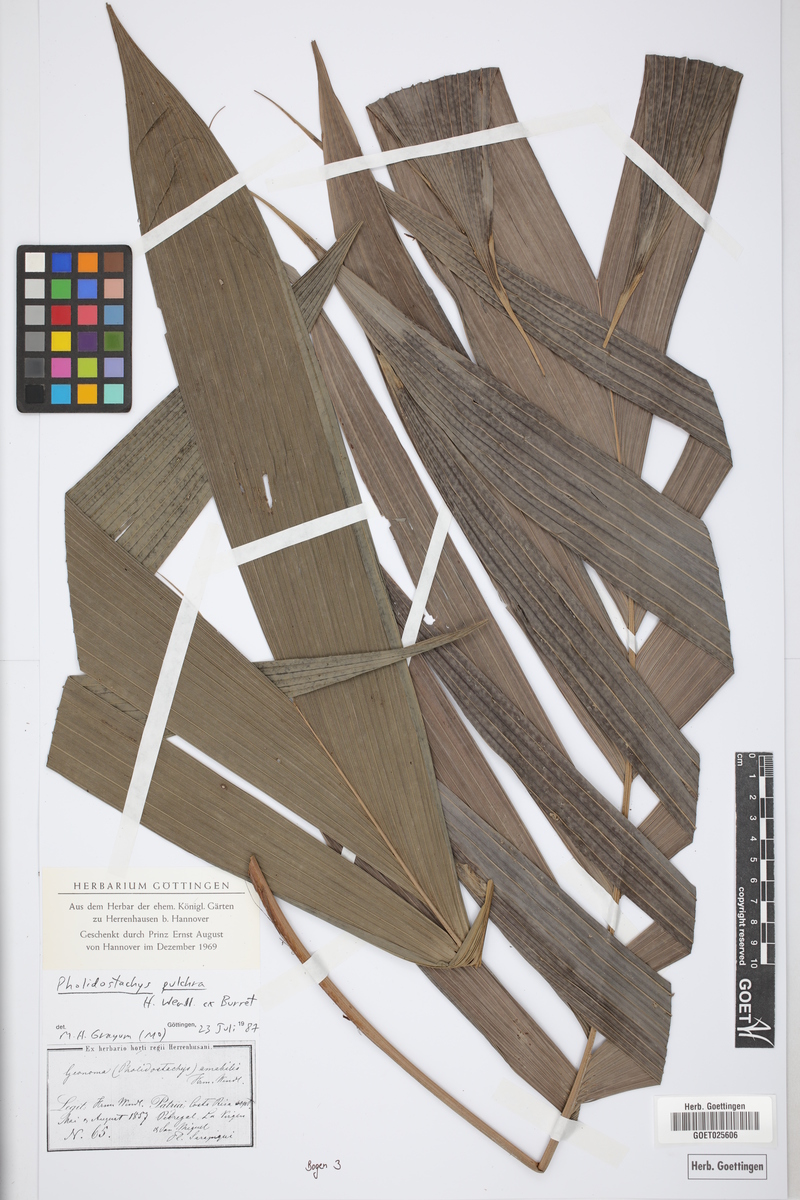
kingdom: Plantae
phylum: Tracheophyta
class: Liliopsida
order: Arecales
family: Arecaceae
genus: Pholidostachys
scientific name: Pholidostachys pulchra
